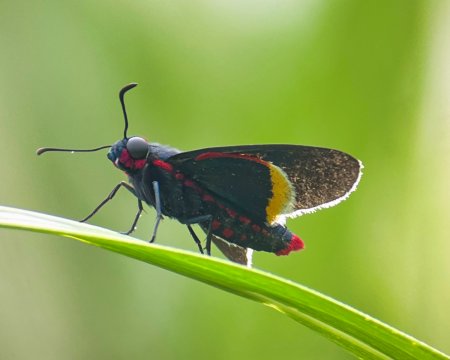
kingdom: Animalia
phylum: Arthropoda
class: Insecta
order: Lepidoptera
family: Hesperiidae
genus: Mysoria
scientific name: Mysoria barcastus
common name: Royal Firetip
